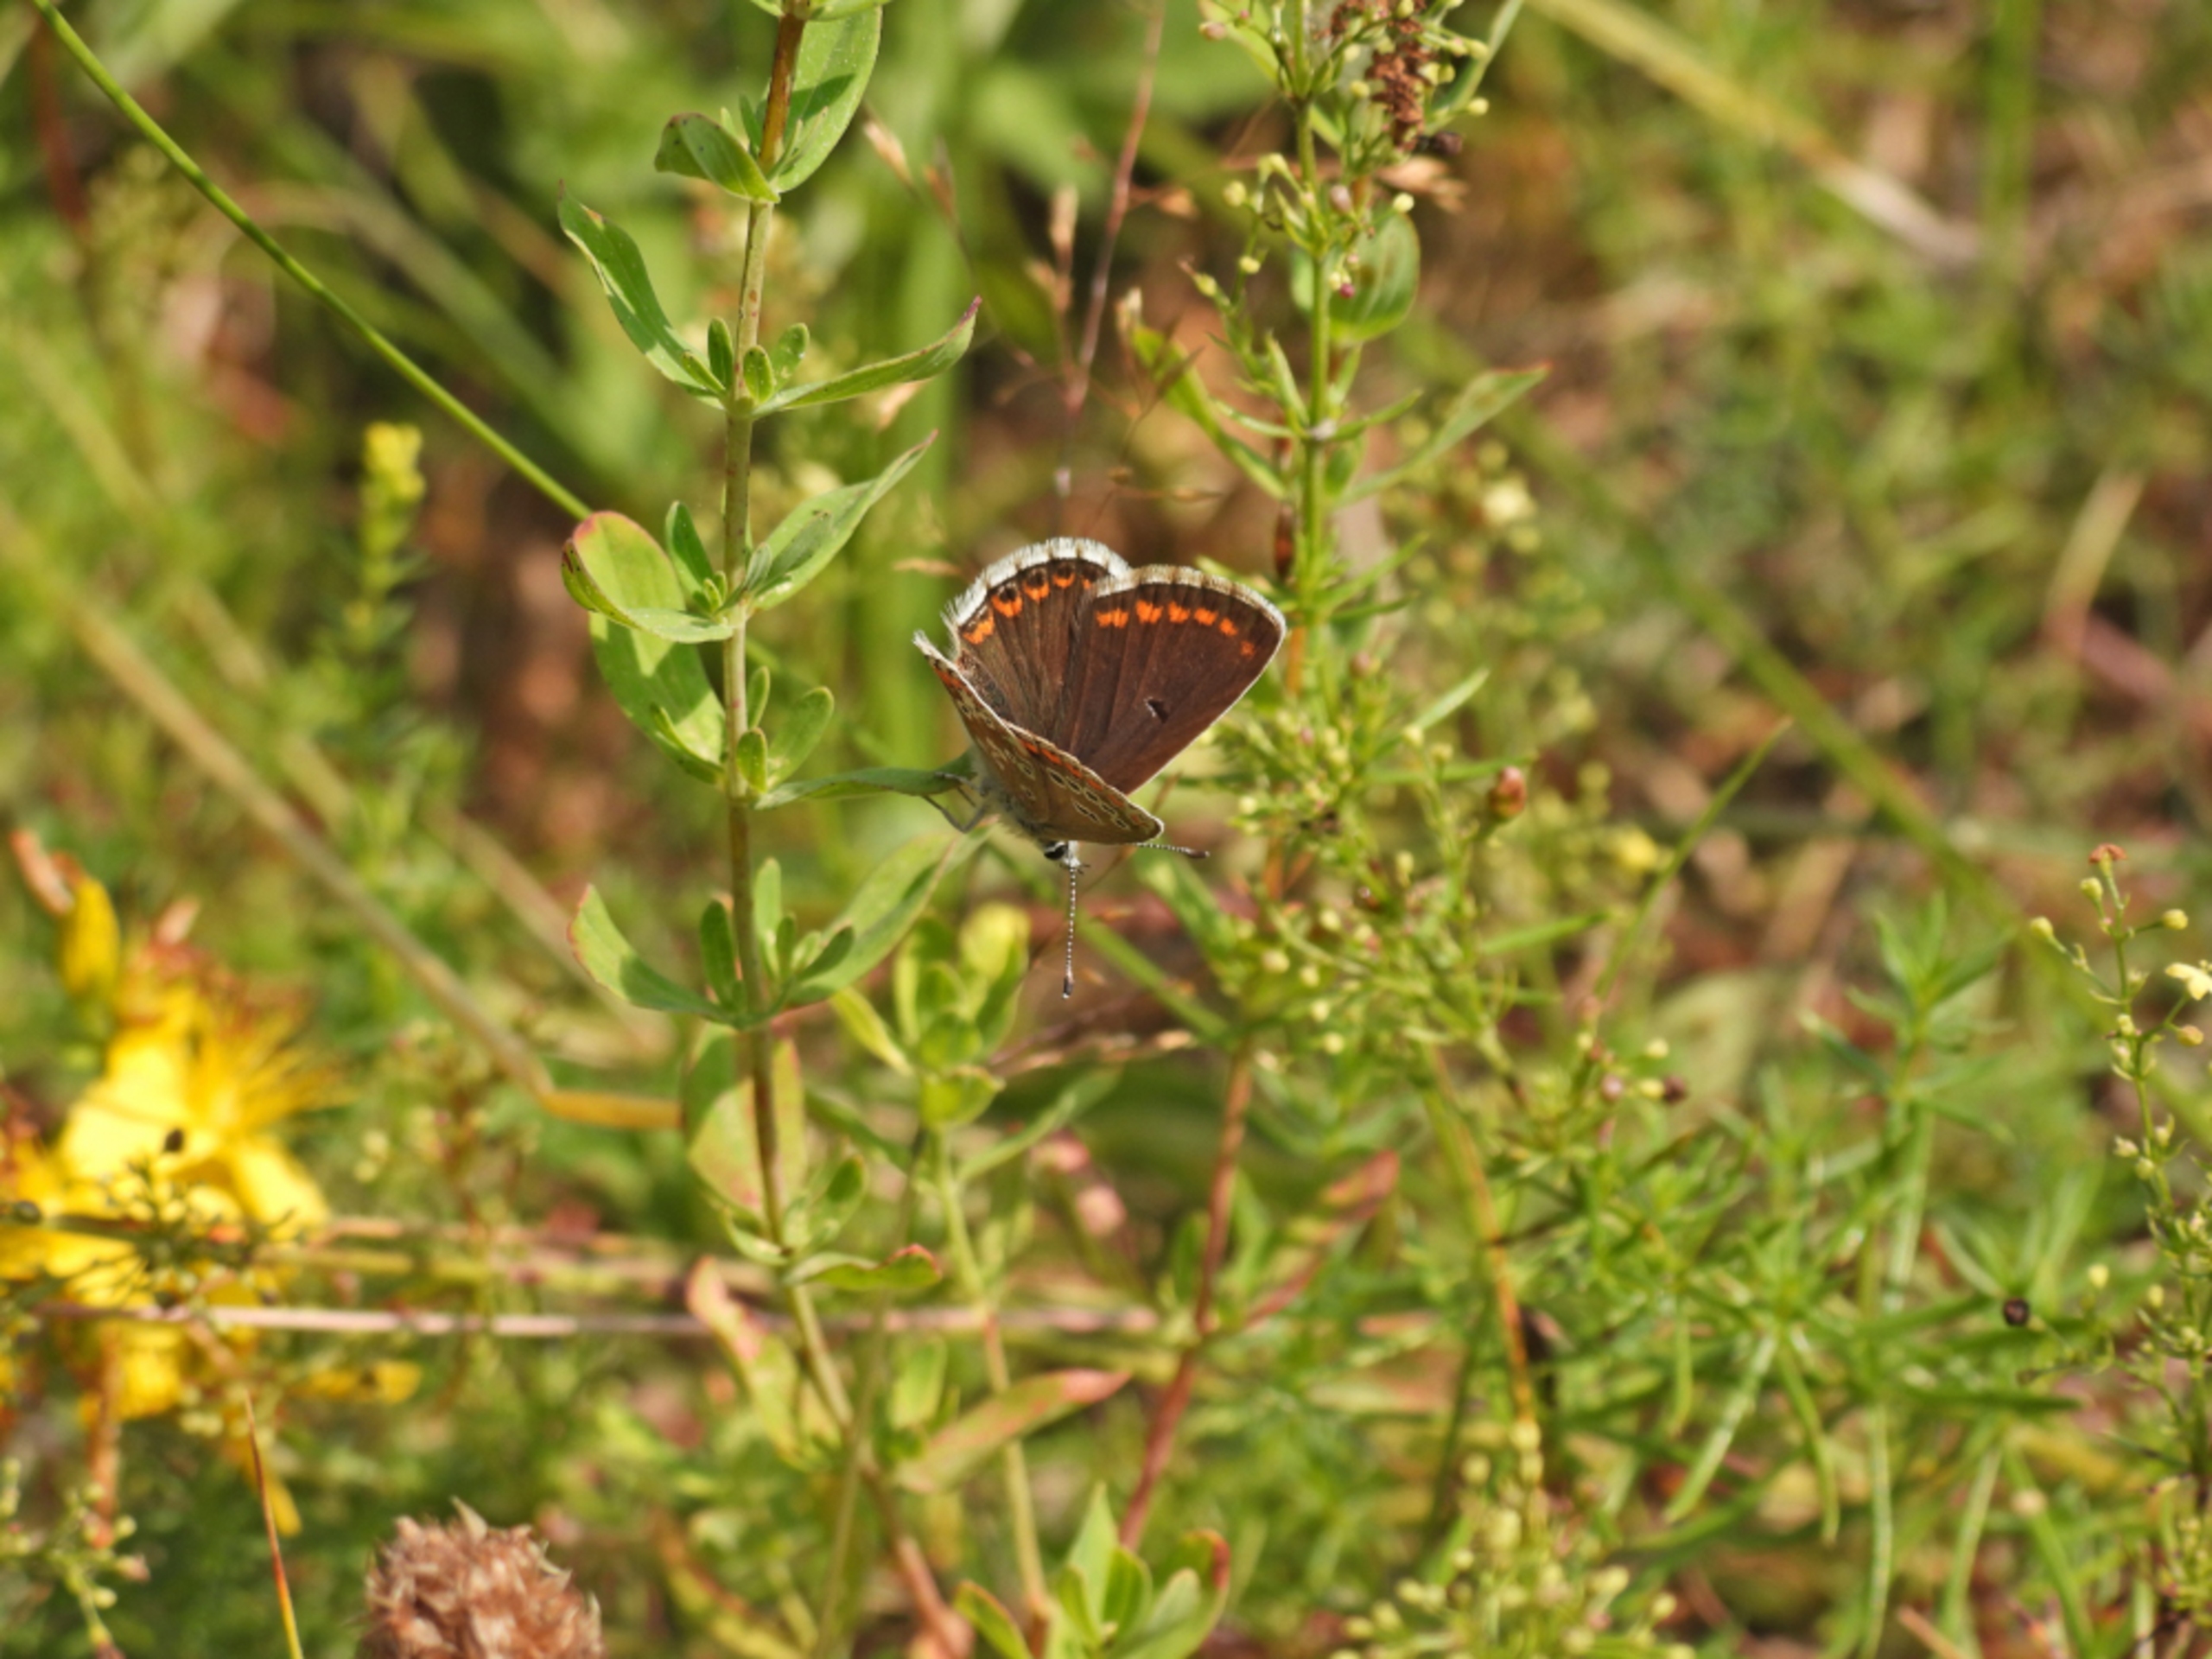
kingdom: Animalia
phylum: Arthropoda
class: Insecta
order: Lepidoptera
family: Lycaenidae
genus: Aricia
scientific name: Aricia agestis
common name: Rødplettet blåfugl
